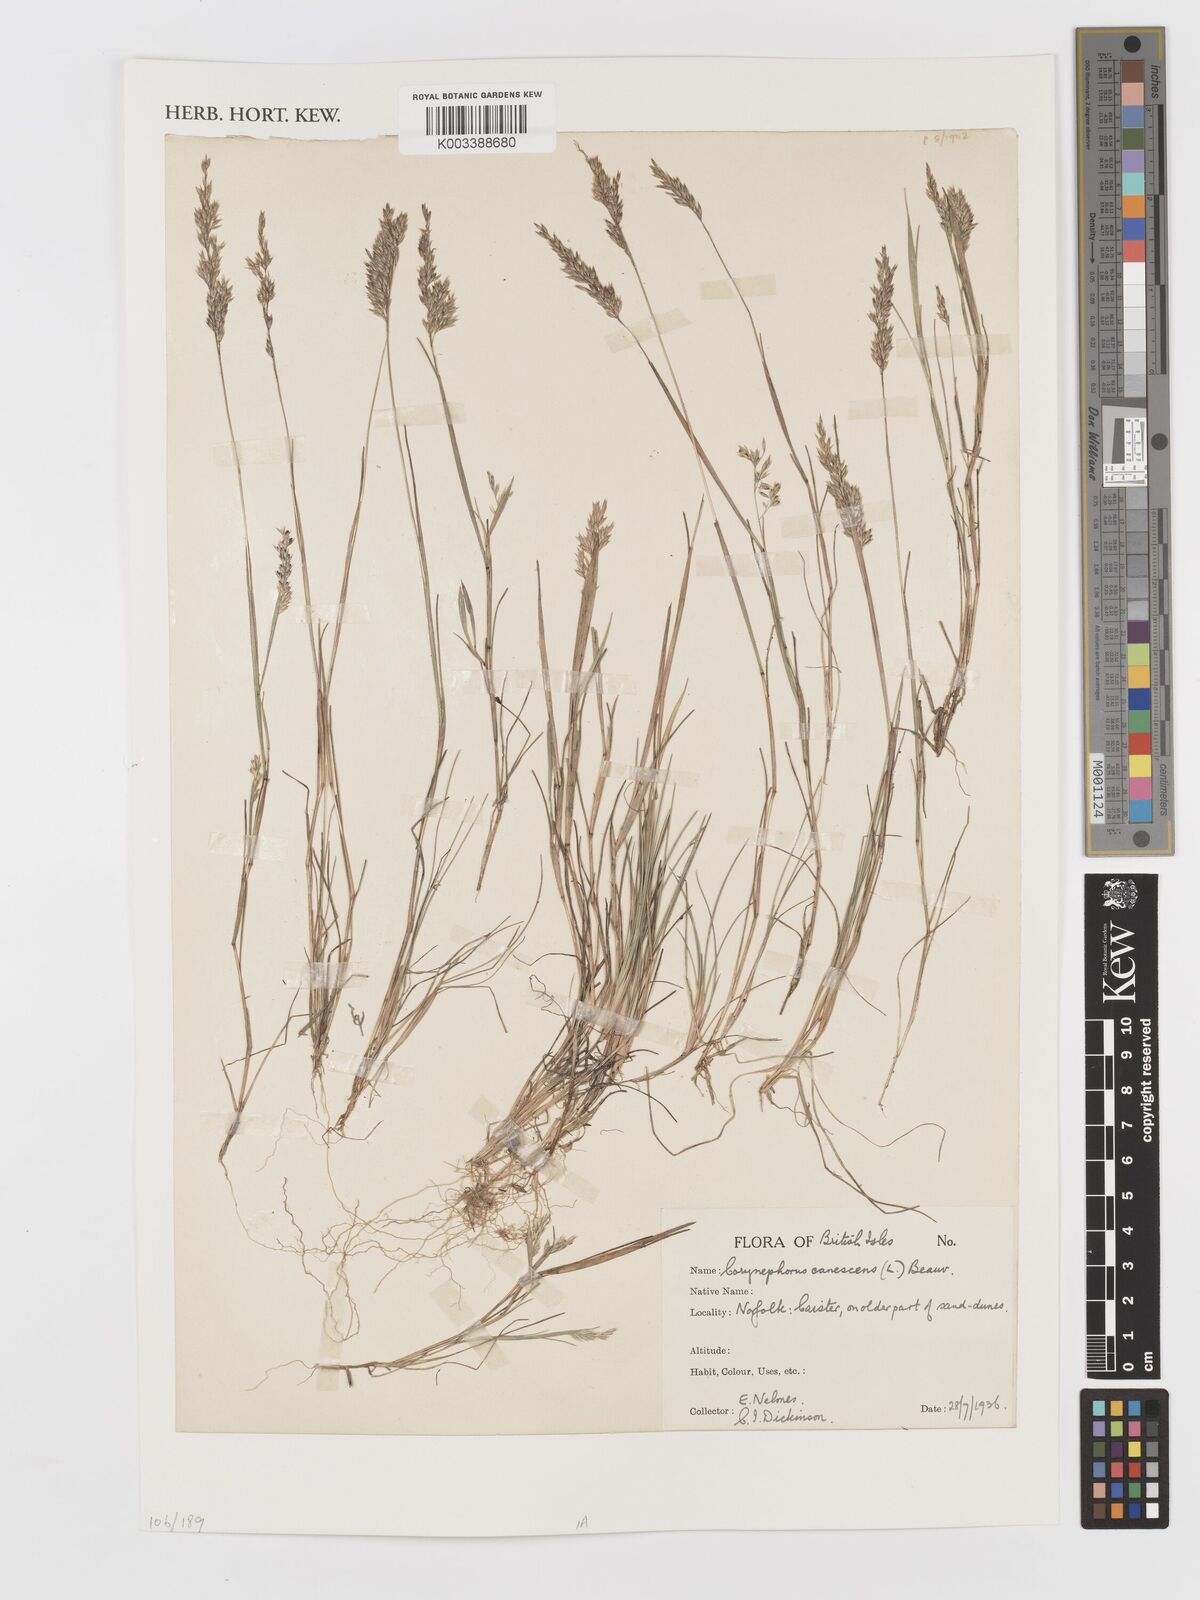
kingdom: Plantae
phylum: Tracheophyta
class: Liliopsida
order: Poales
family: Poaceae
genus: Corynephorus
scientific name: Corynephorus canescens
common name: Grey hair-grass
